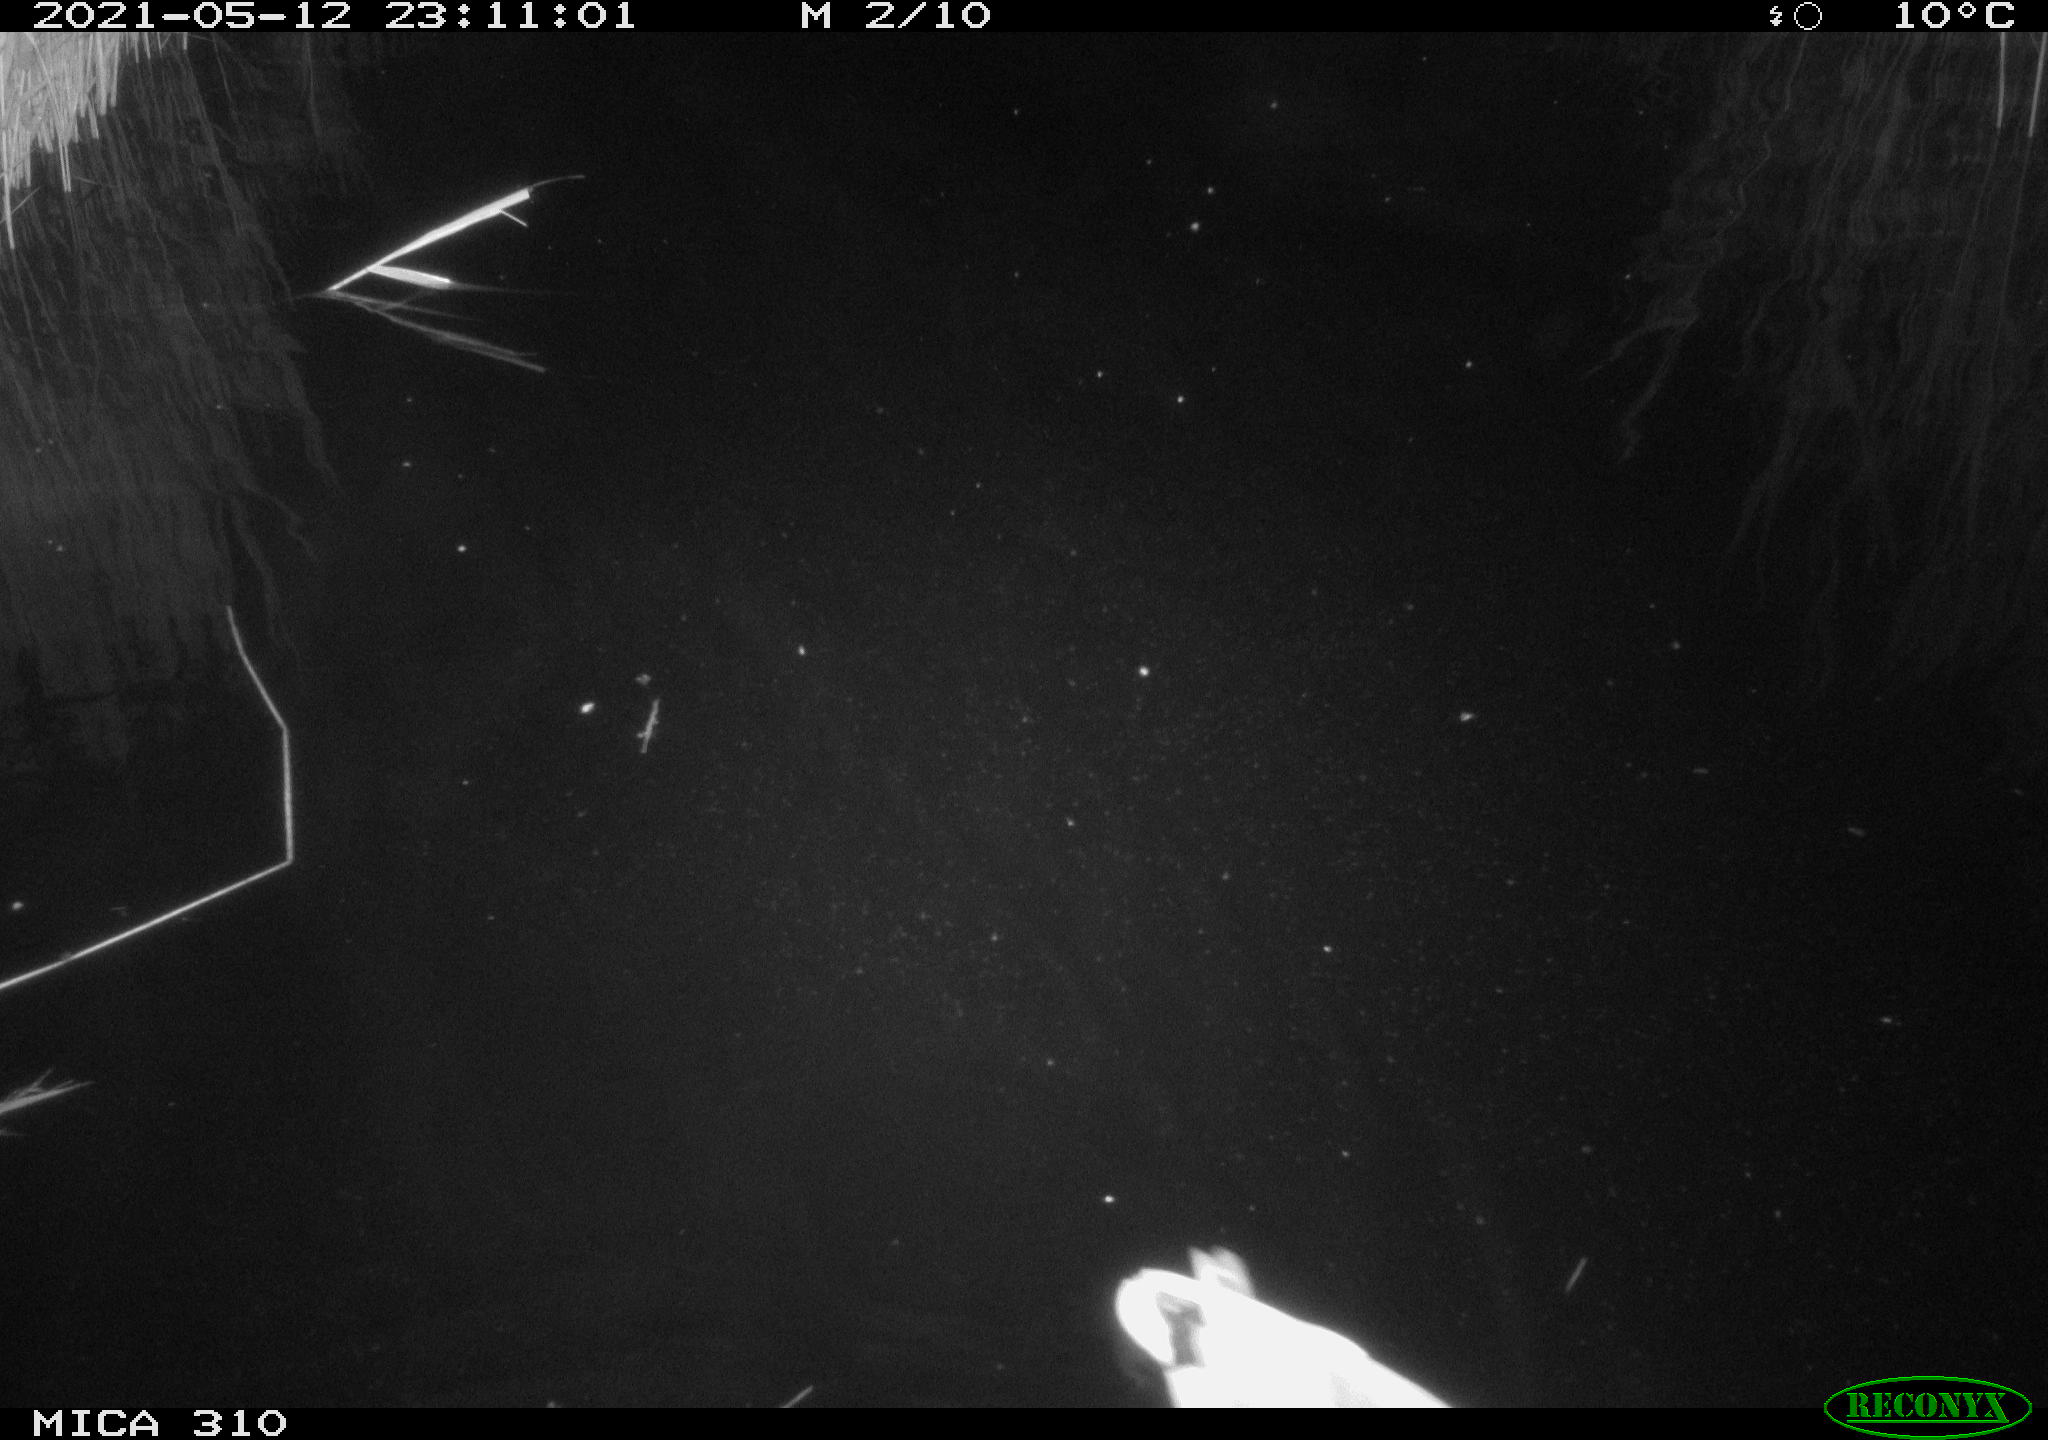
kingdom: Animalia
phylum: Chordata
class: Aves
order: Anseriformes
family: Anatidae
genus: Anas
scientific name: Anas platyrhynchos
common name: Mallard
